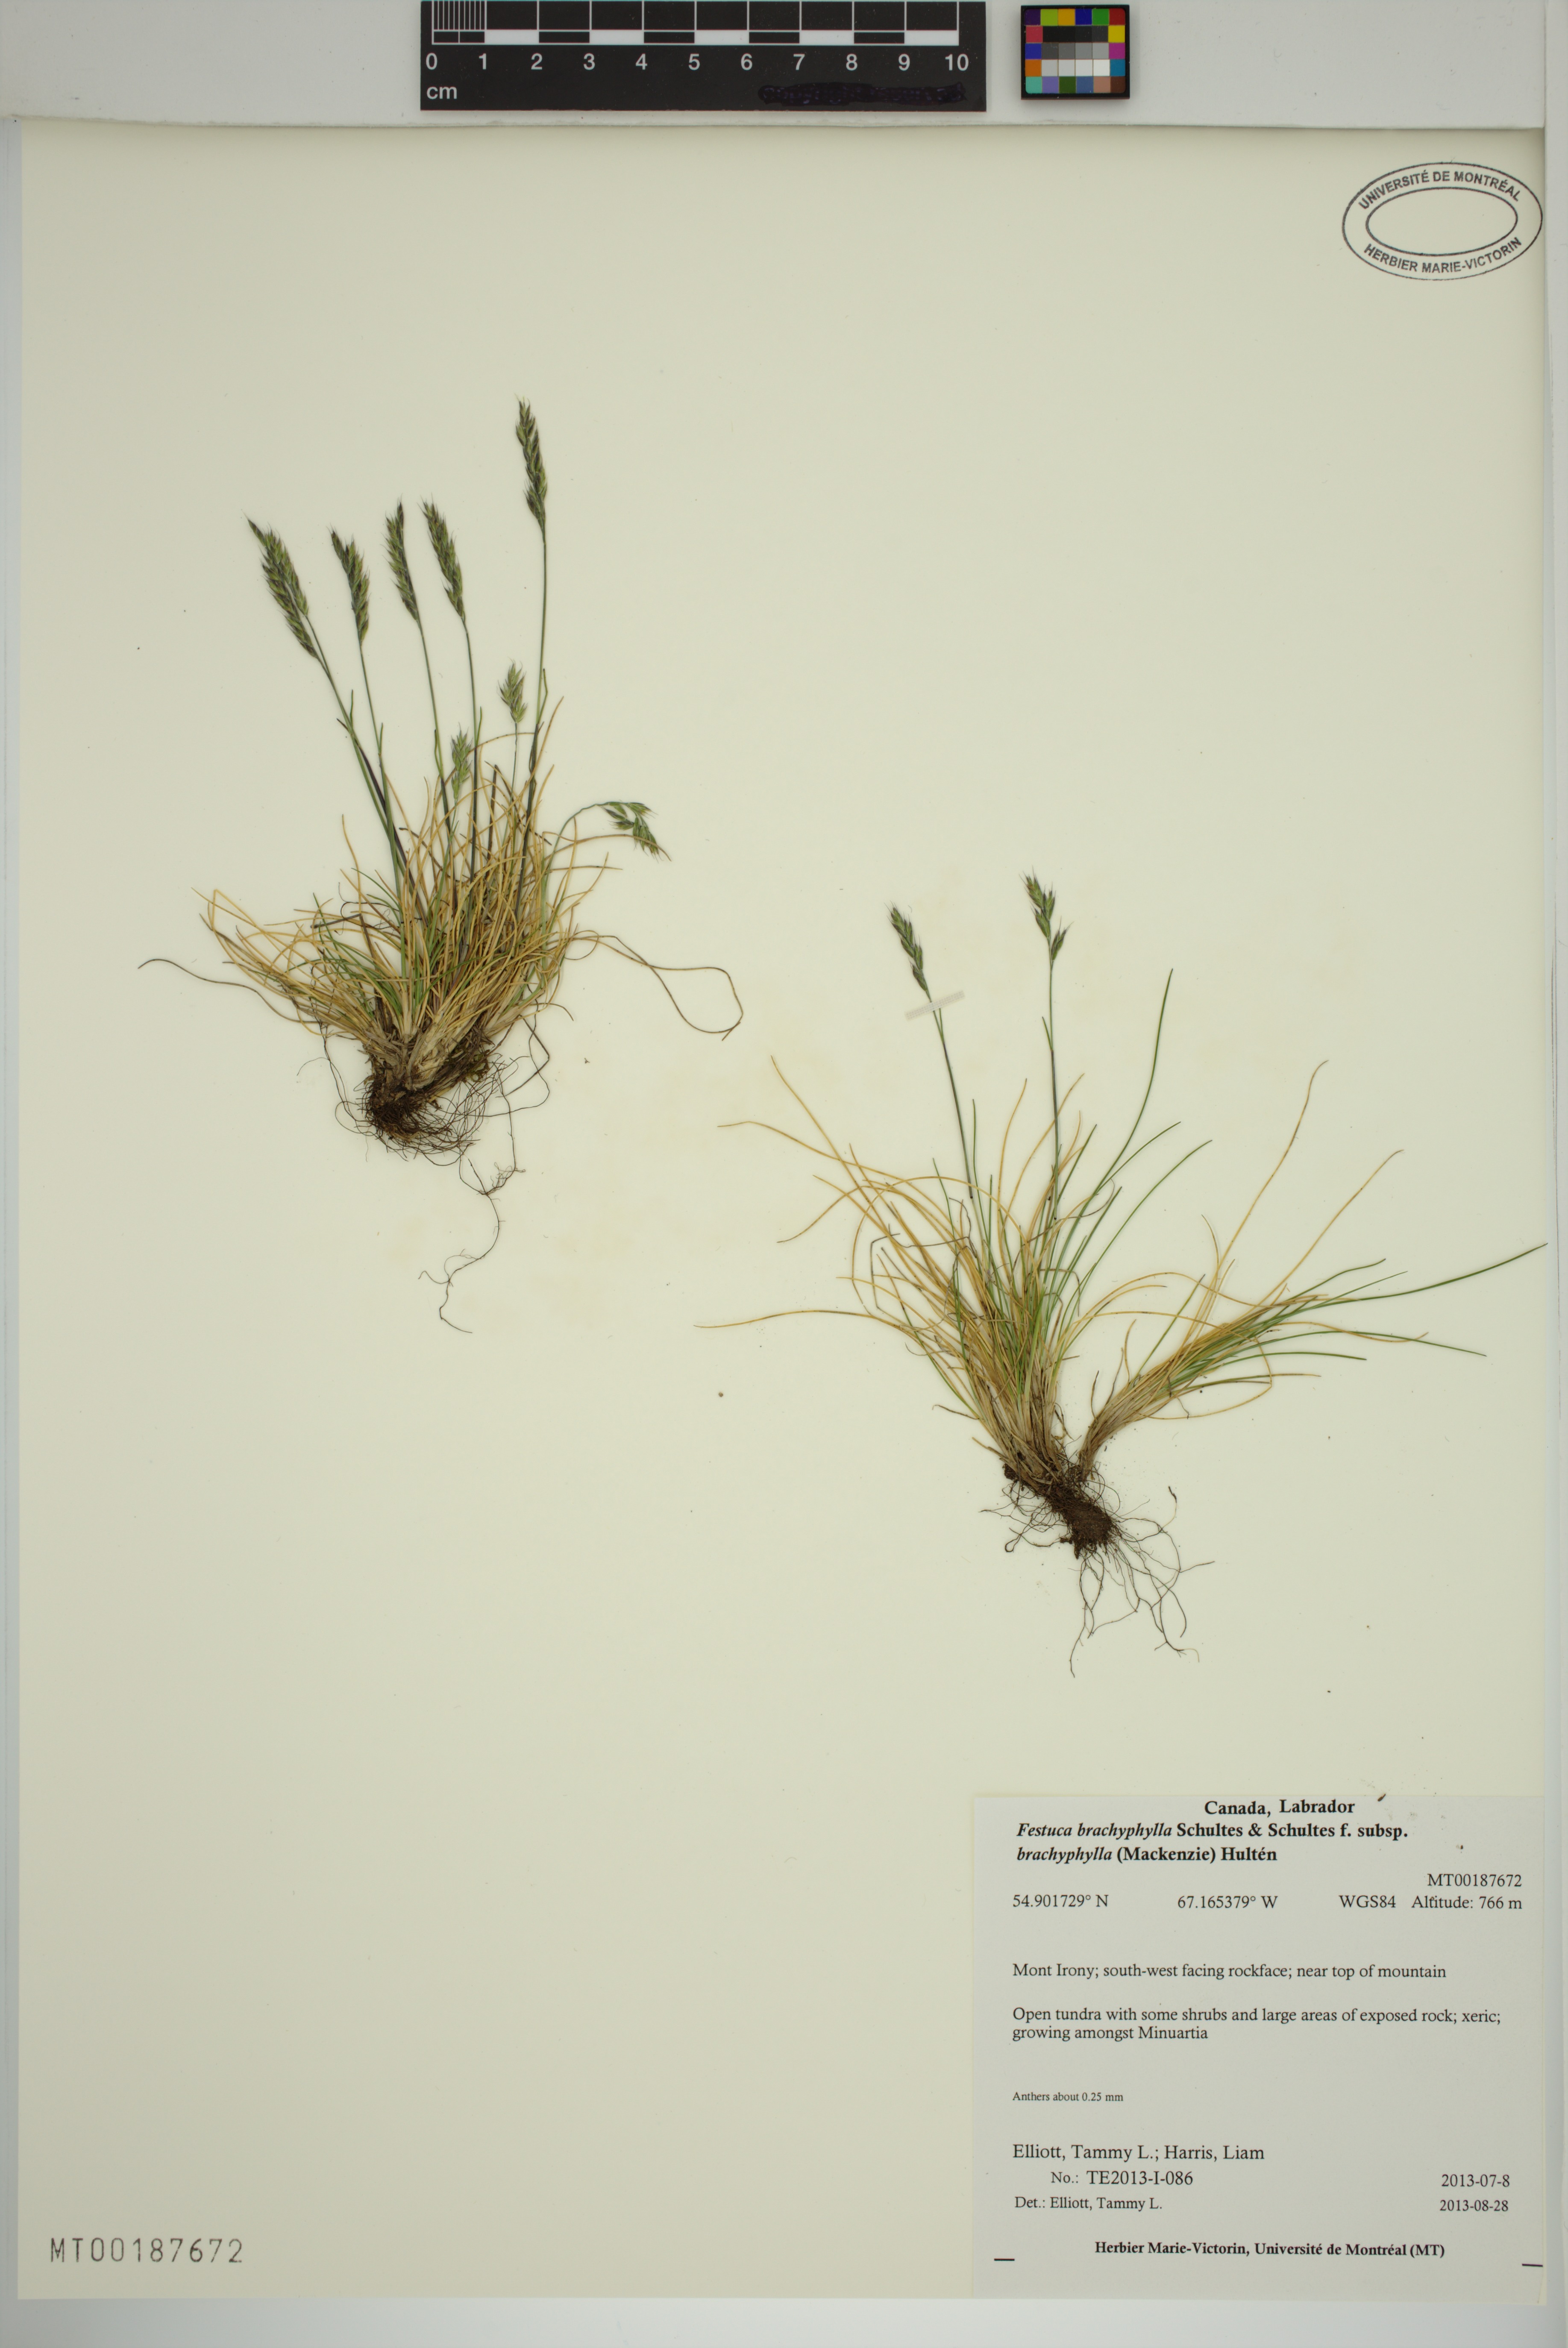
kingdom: Plantae
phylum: Tracheophyta
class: Liliopsida
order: Poales
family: Poaceae
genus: Festuca
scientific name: Festuca brachyphylla
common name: Alpine fescue
